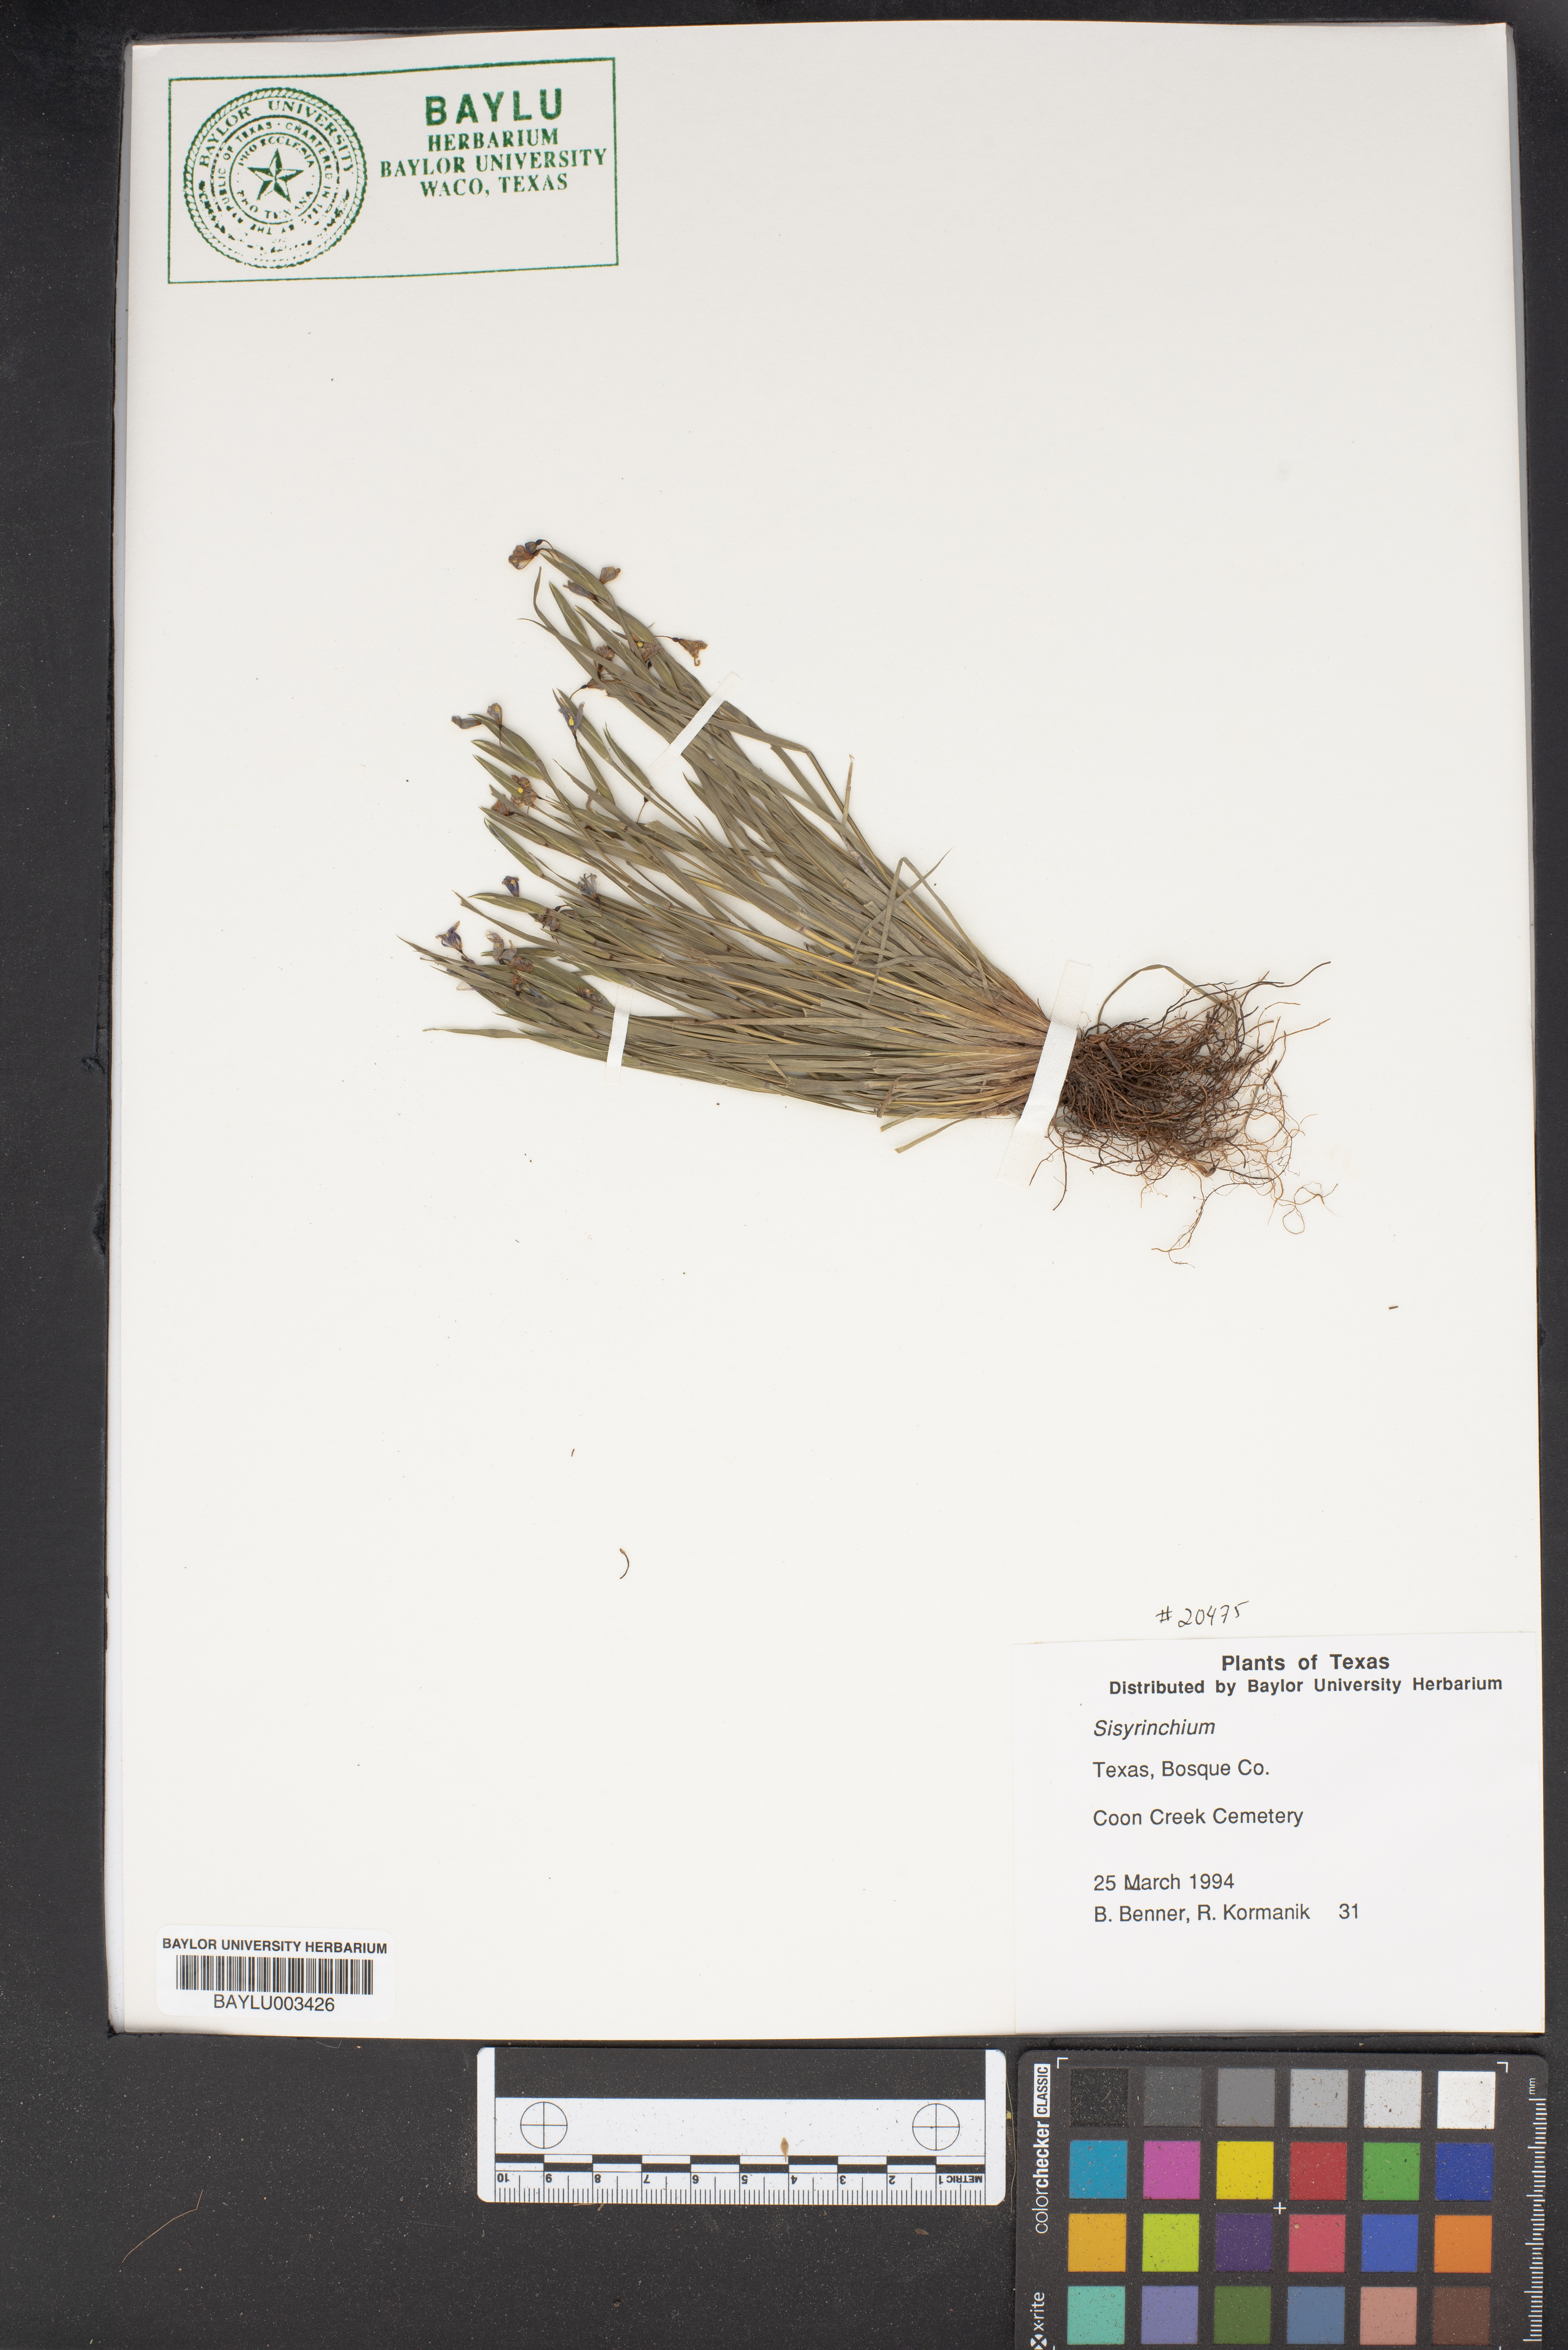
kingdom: Plantae
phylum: Tracheophyta
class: Liliopsida
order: Asparagales
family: Iridaceae
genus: Sisyrinchium
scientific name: Sisyrinchium
